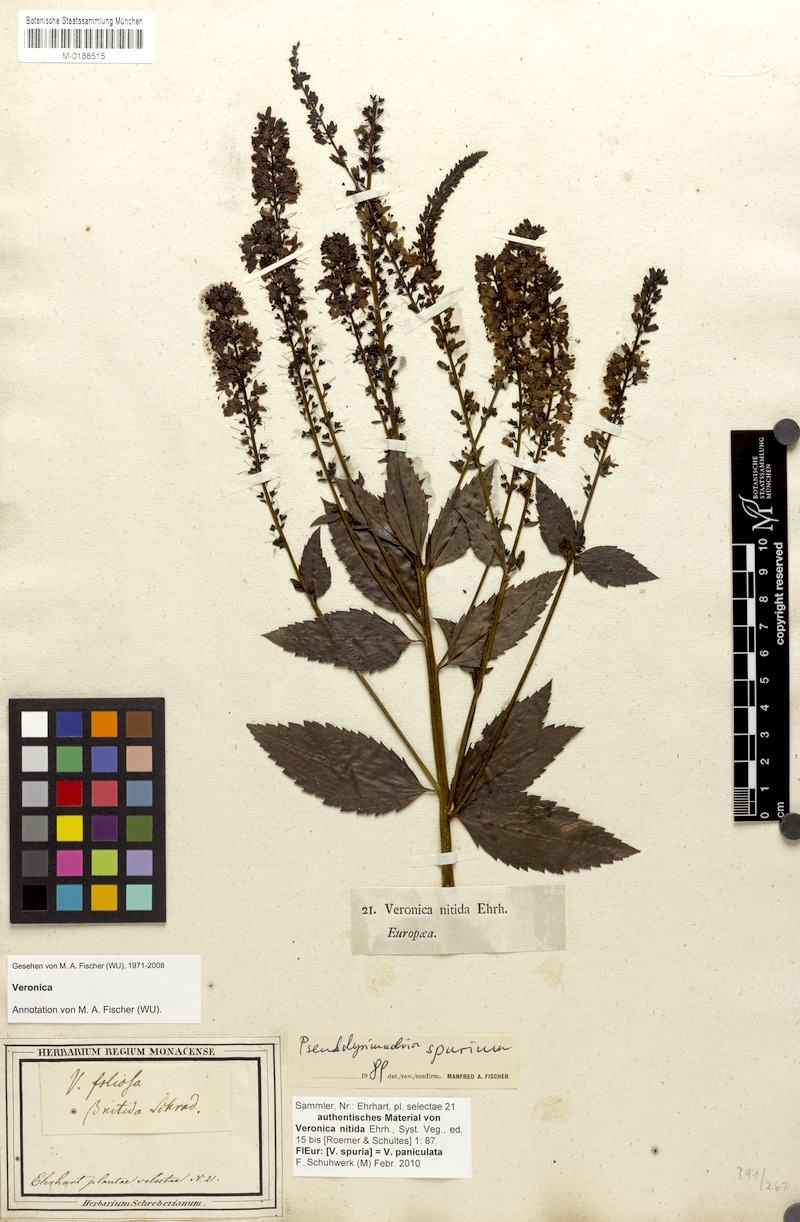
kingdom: Plantae
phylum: Tracheophyta
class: Magnoliopsida
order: Lamiales
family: Plantaginaceae
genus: Veronica
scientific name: Veronica spuria
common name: Bastard speedwell
